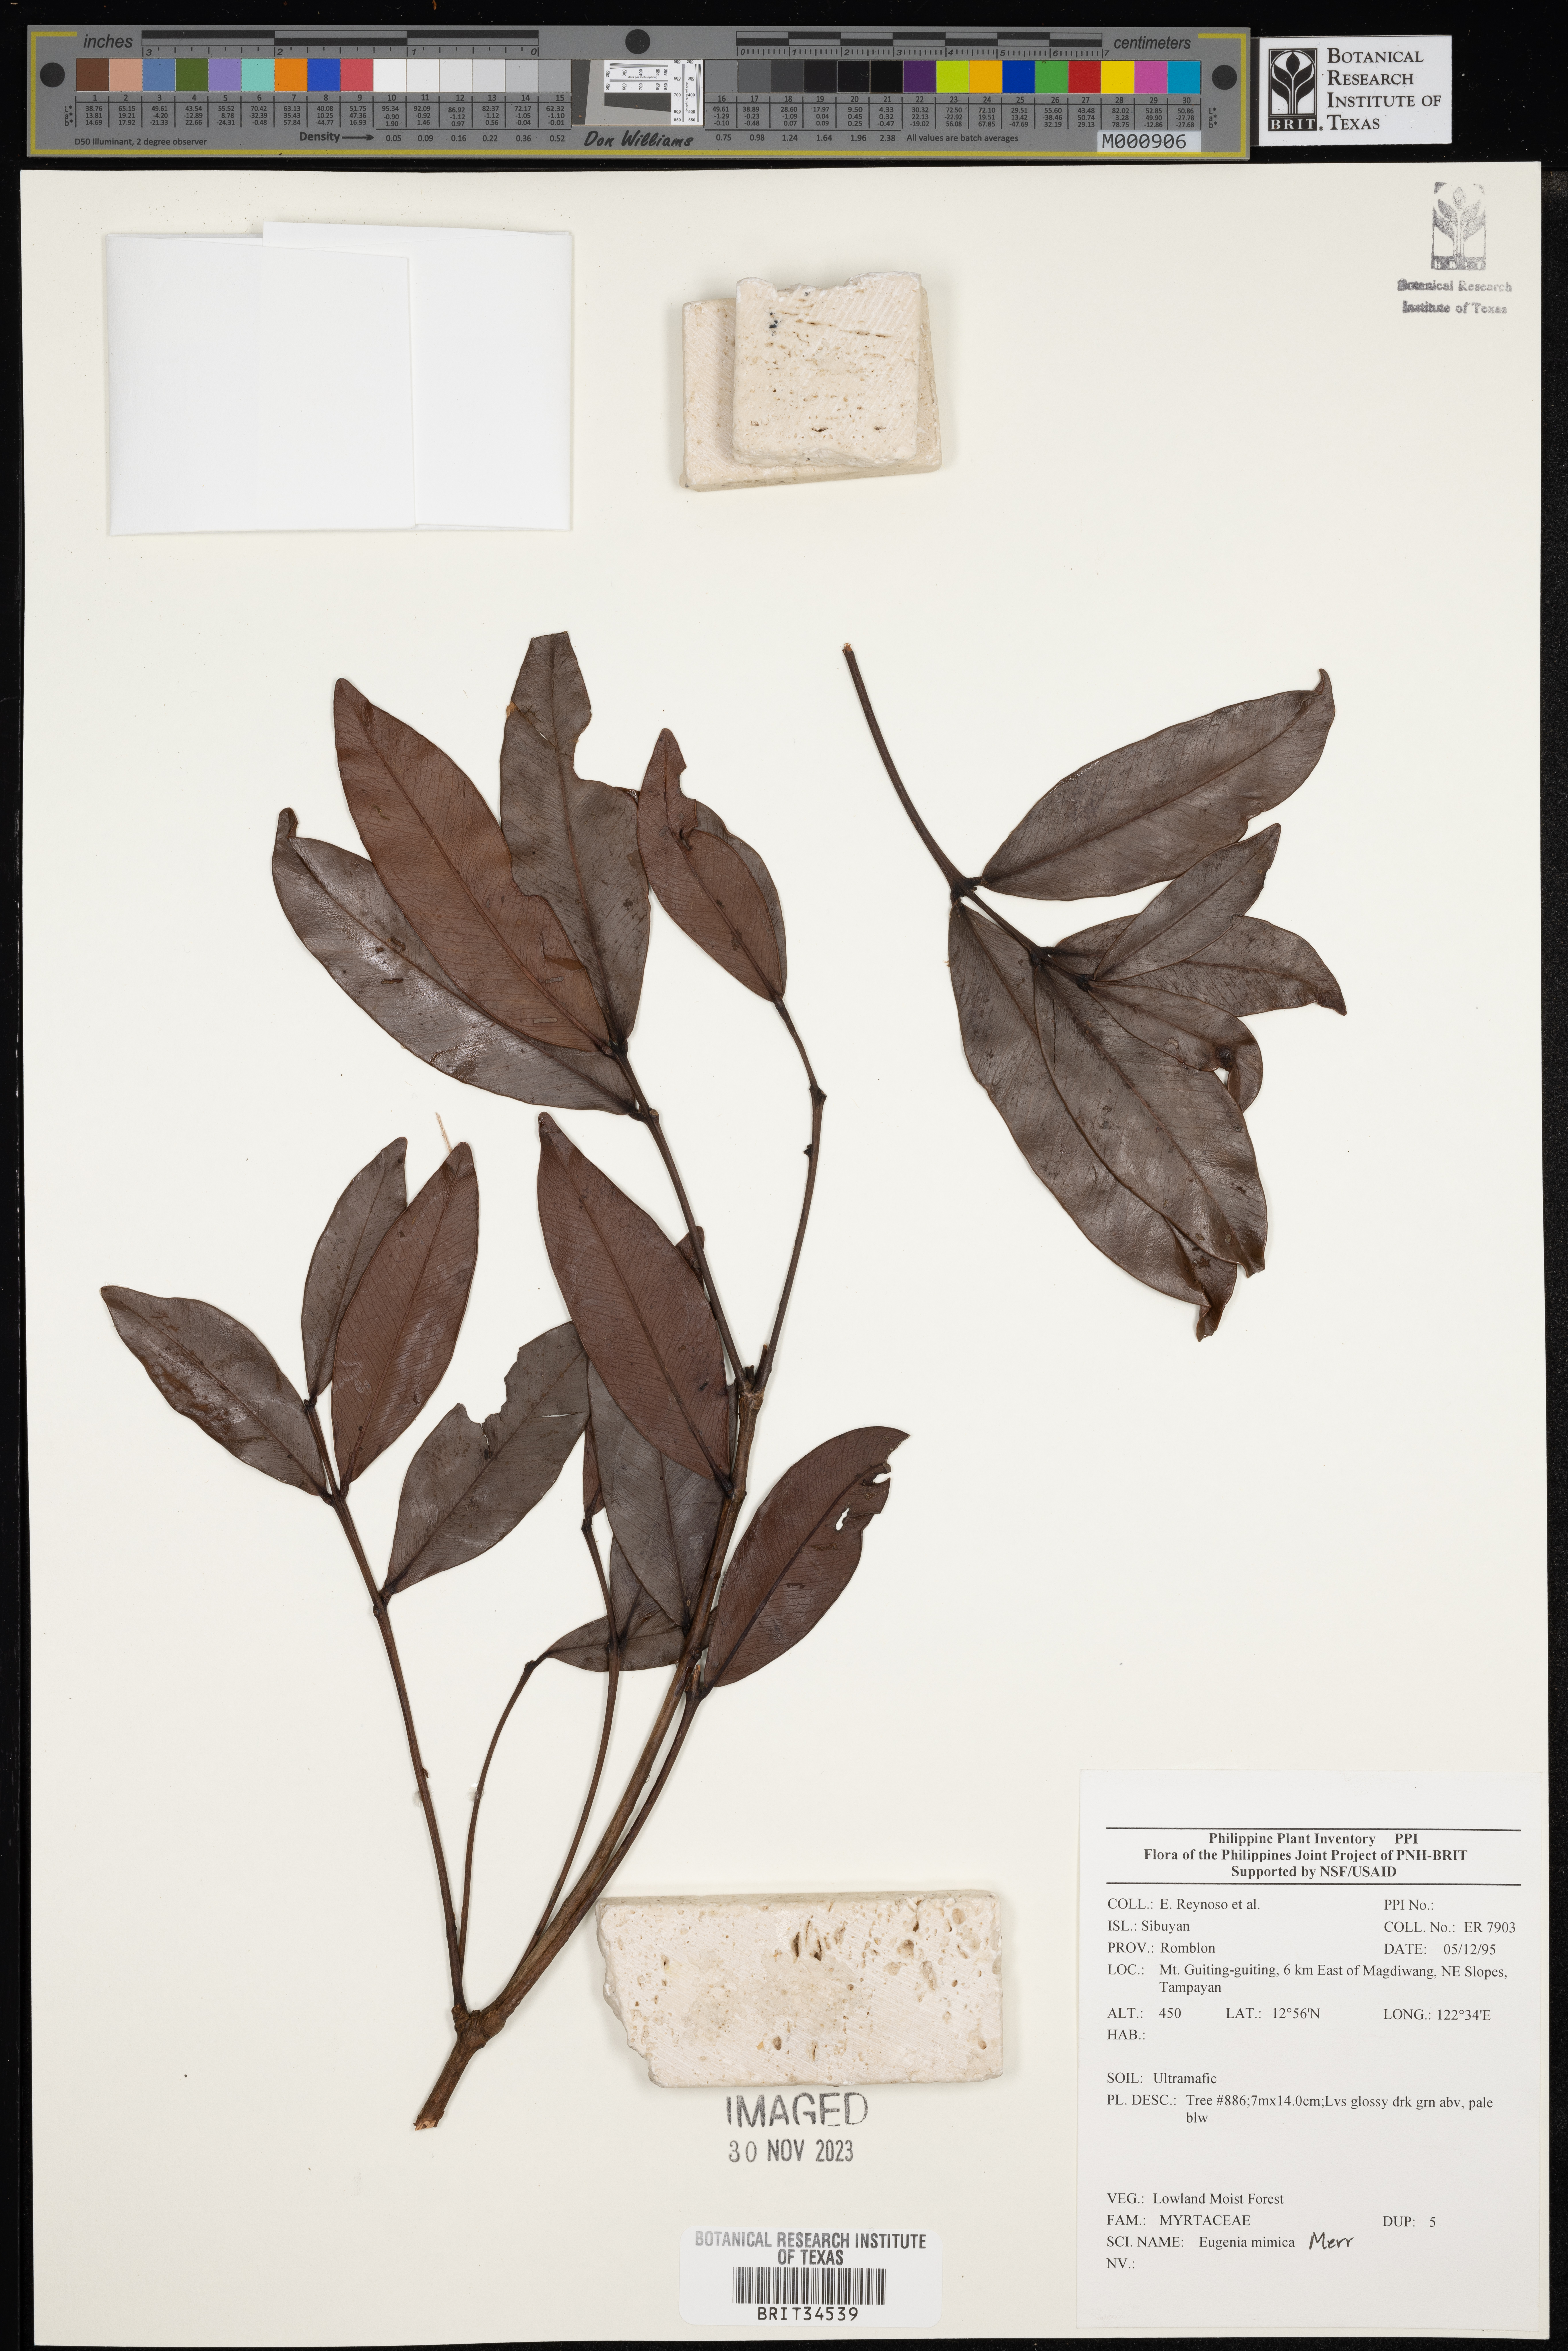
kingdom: Plantae
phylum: Tracheophyta
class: Magnoliopsida
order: Myrtales
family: Myrtaceae
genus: Eugenia
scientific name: Eugenia
